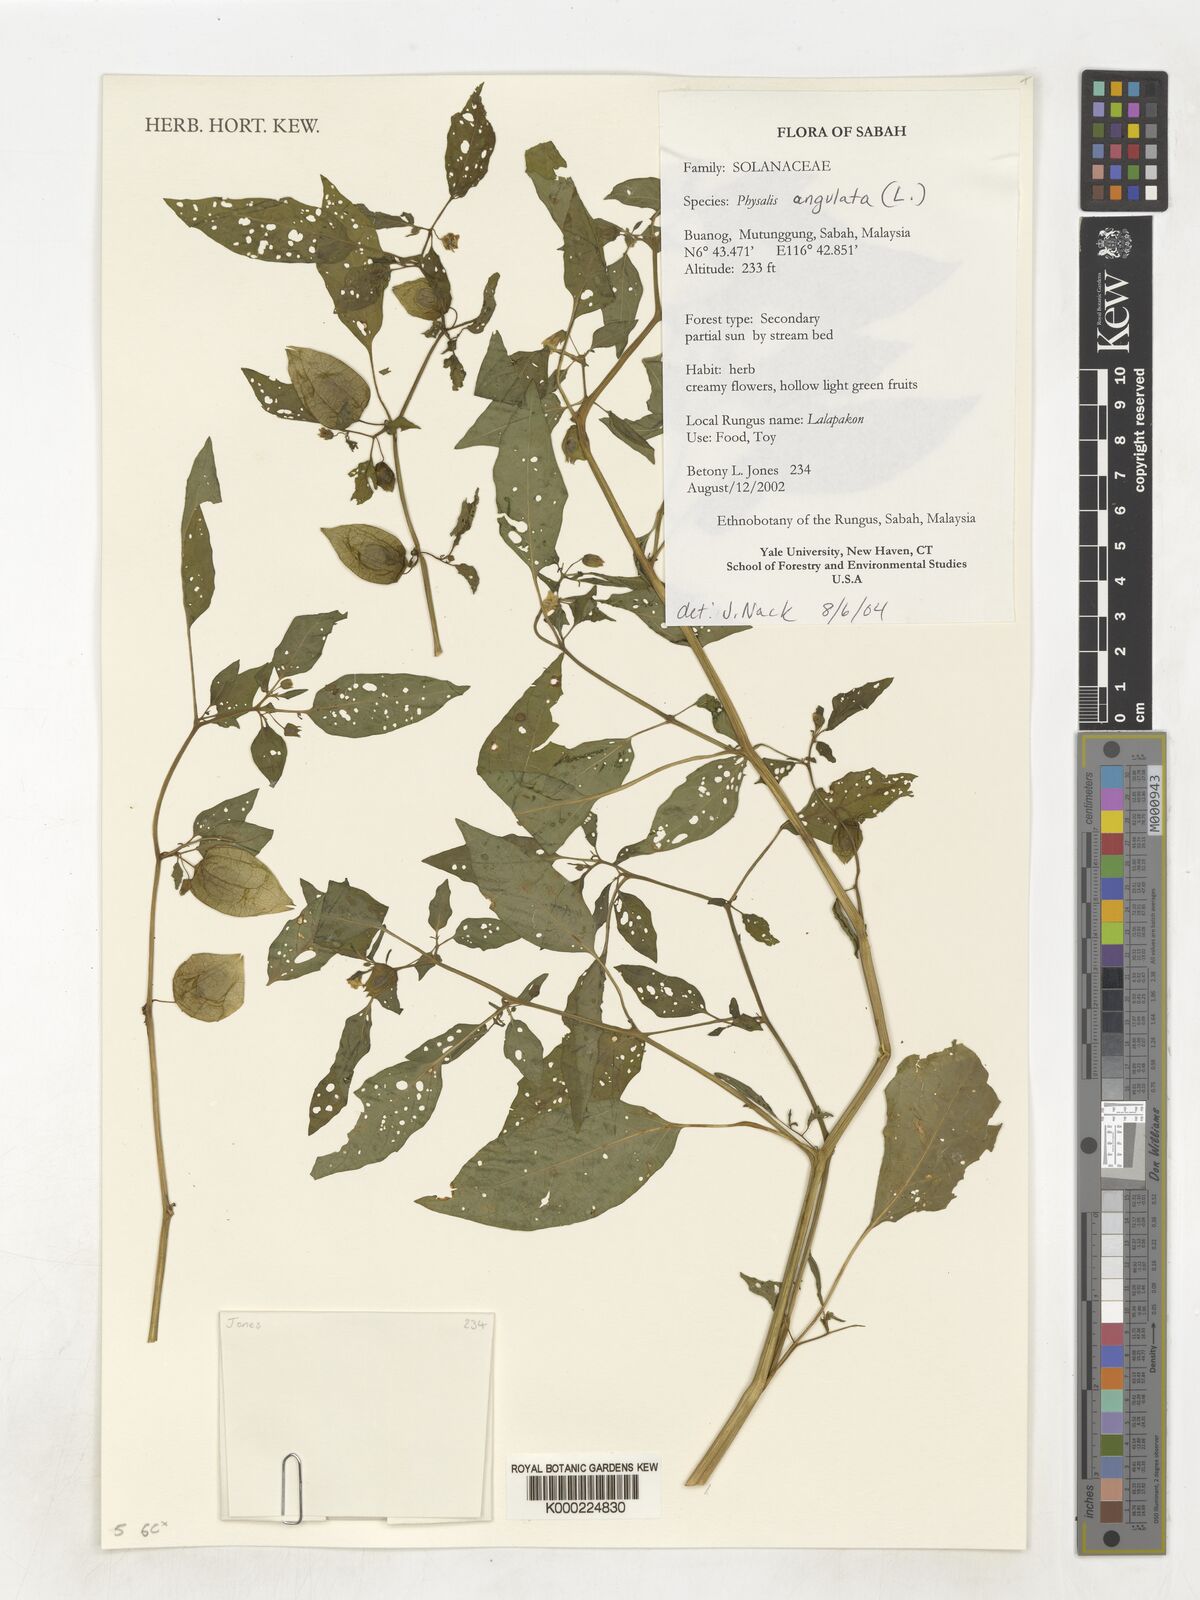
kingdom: Plantae
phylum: Tracheophyta
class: Magnoliopsida
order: Solanales
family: Solanaceae
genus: Physalis
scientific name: Physalis angulata
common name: Angular winter-cherry
